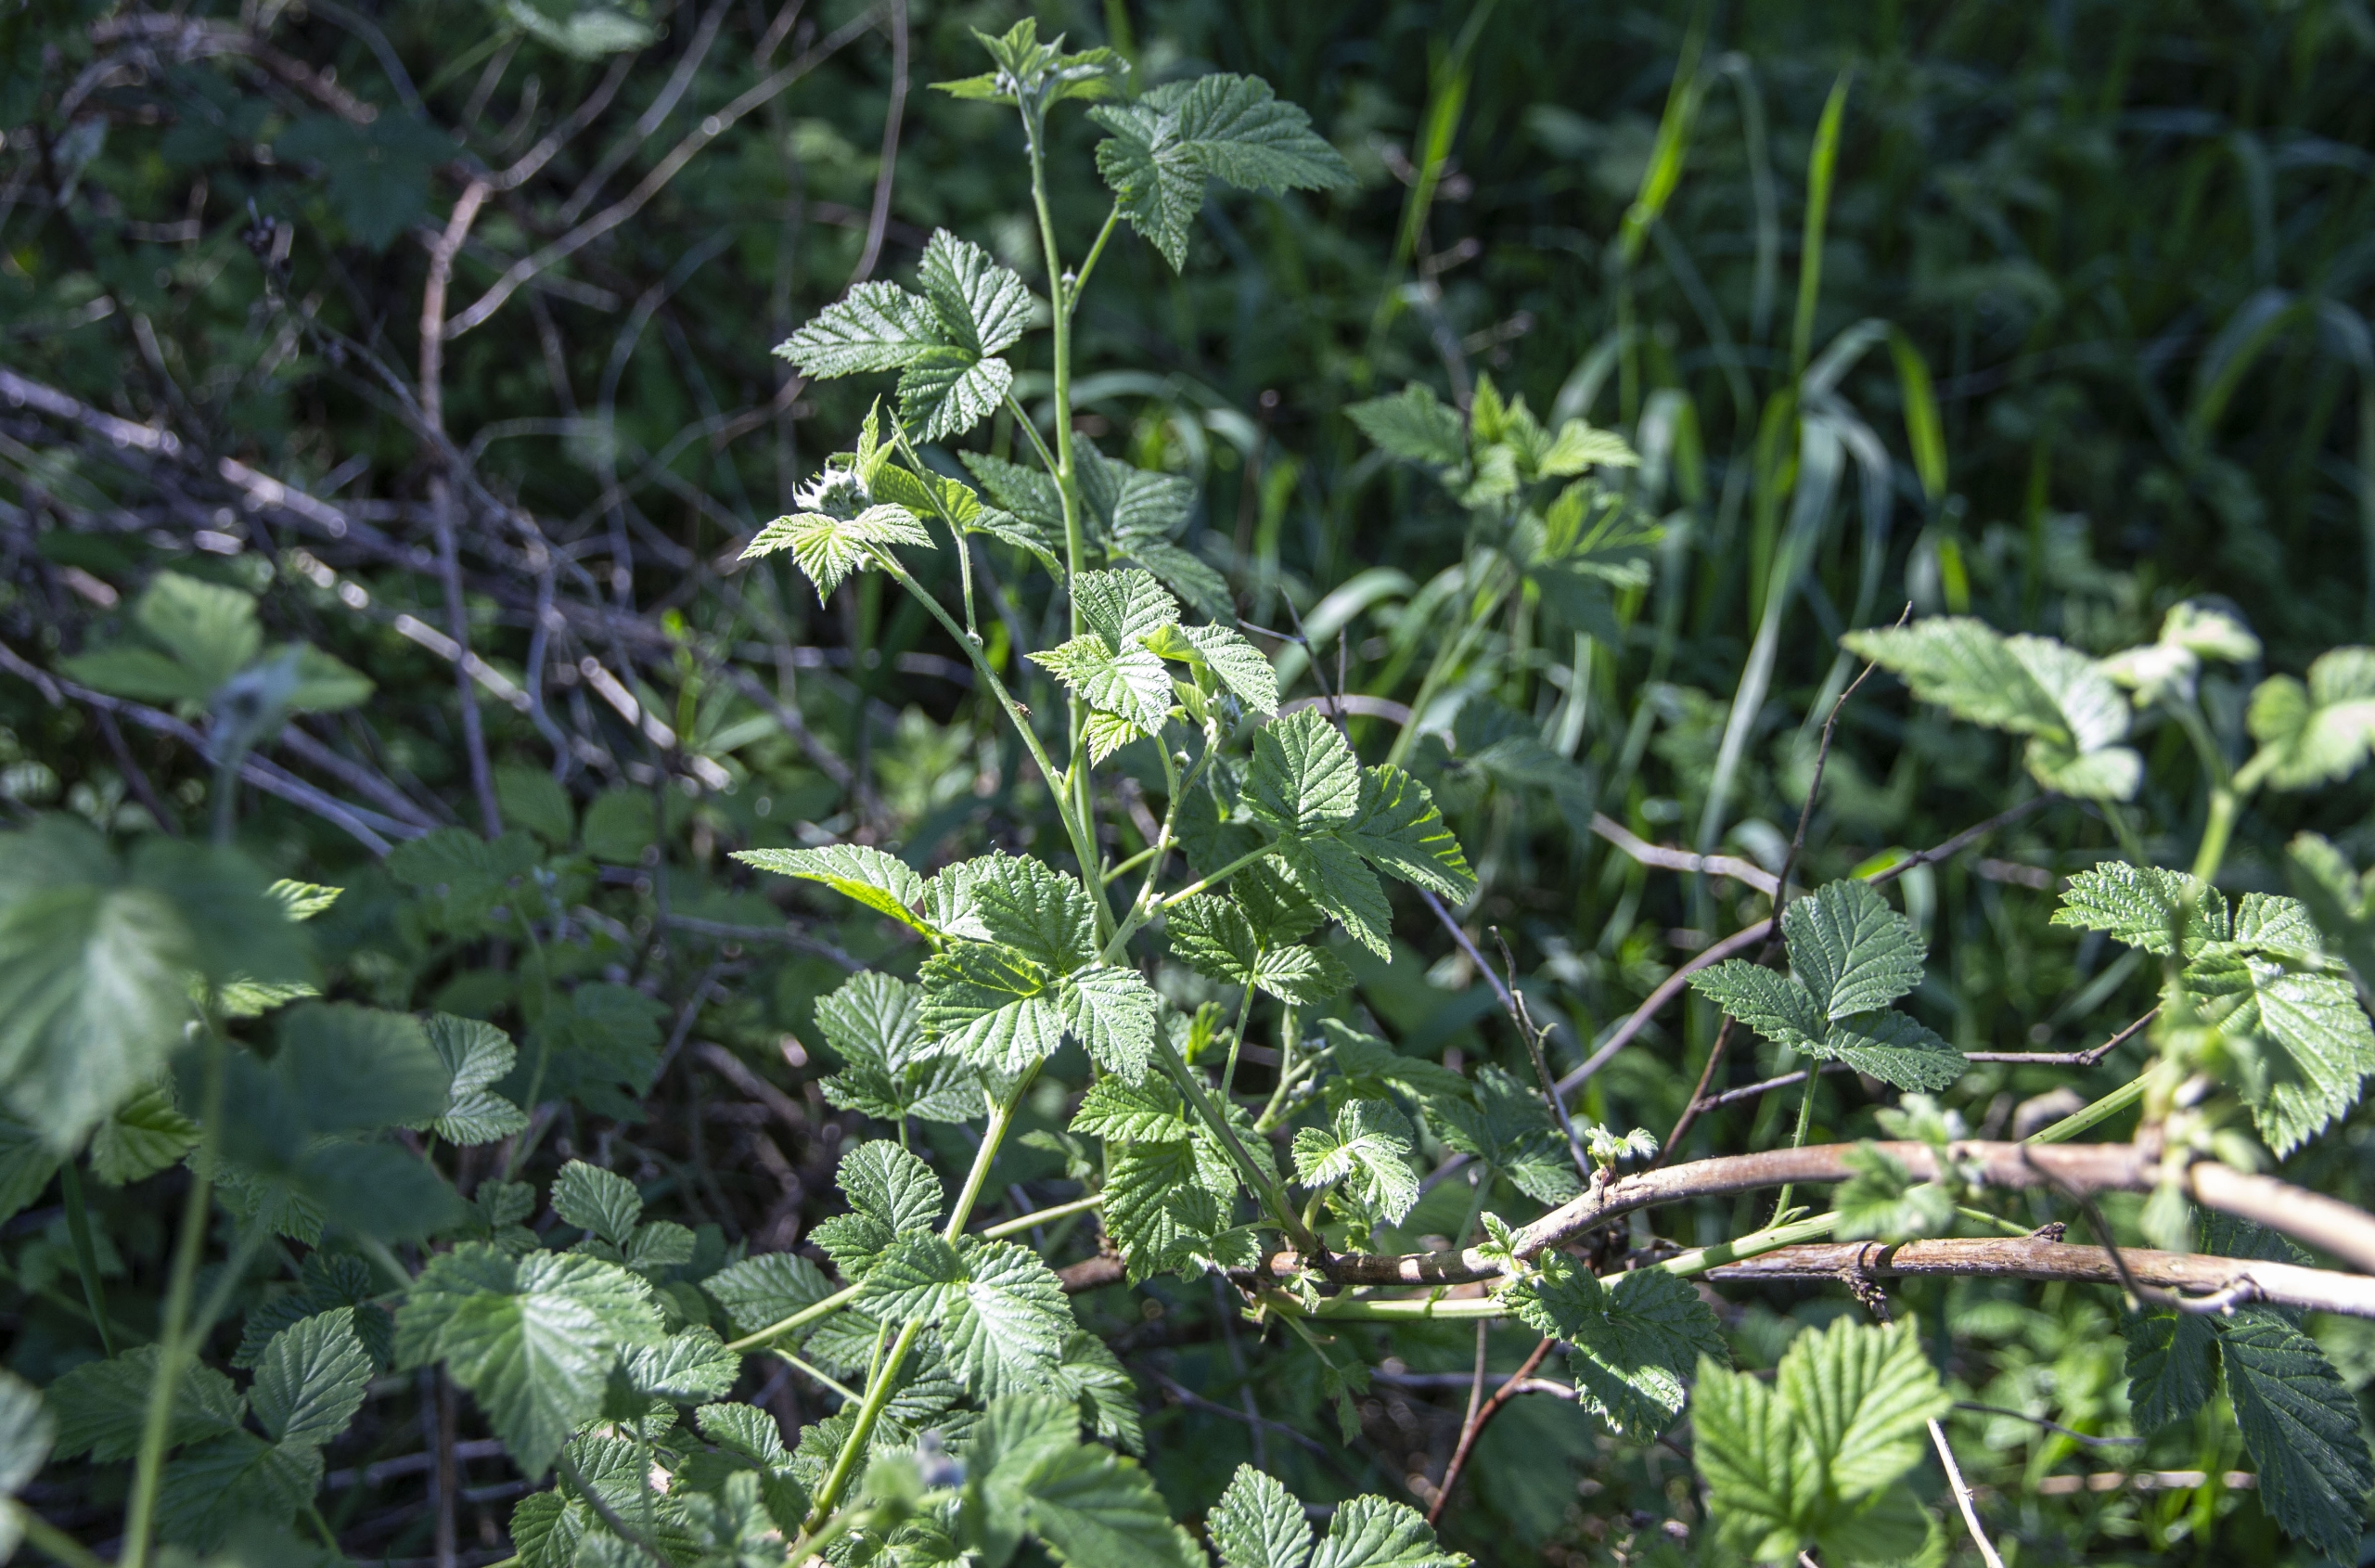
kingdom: Plantae
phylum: Tracheophyta
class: Magnoliopsida
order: Rosales
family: Rosaceae
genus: Rubus
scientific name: Rubus idaeus
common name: Hindbær
